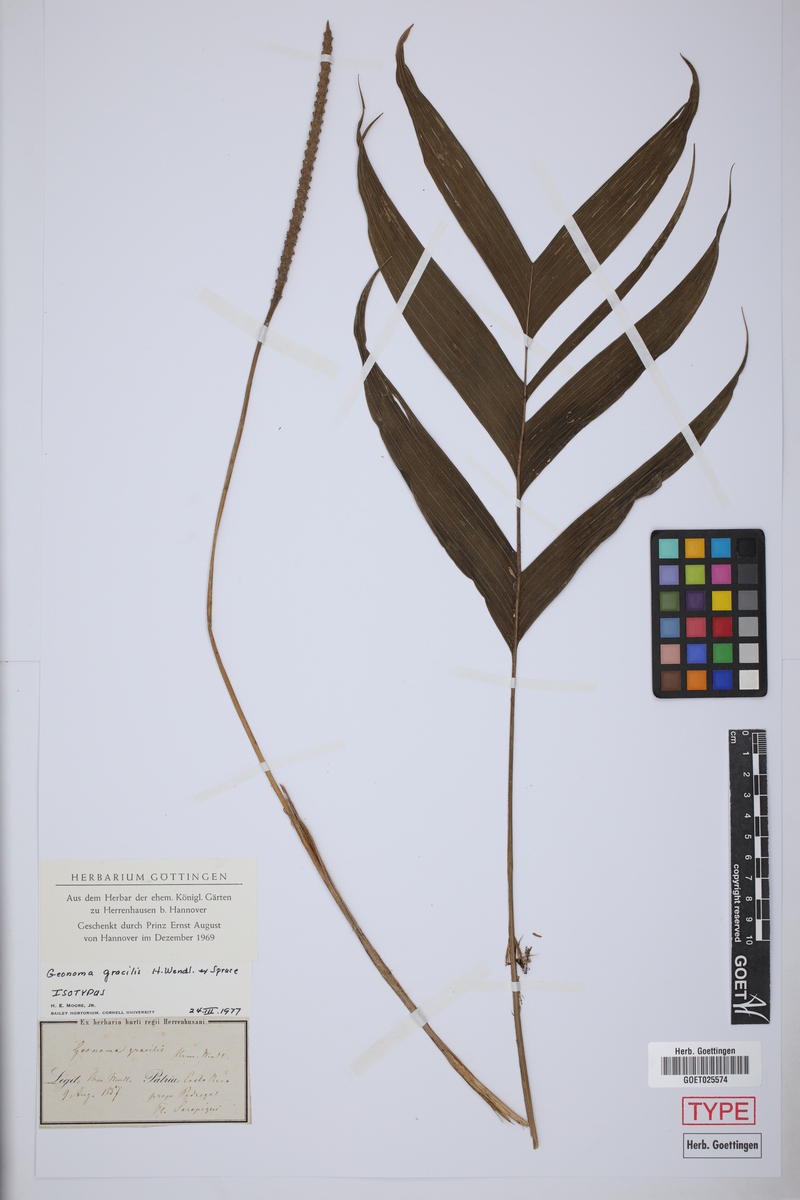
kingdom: Plantae
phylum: Tracheophyta
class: Liliopsida
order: Arecales
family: Arecaceae
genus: Geonoma
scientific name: Geonoma cuneata
